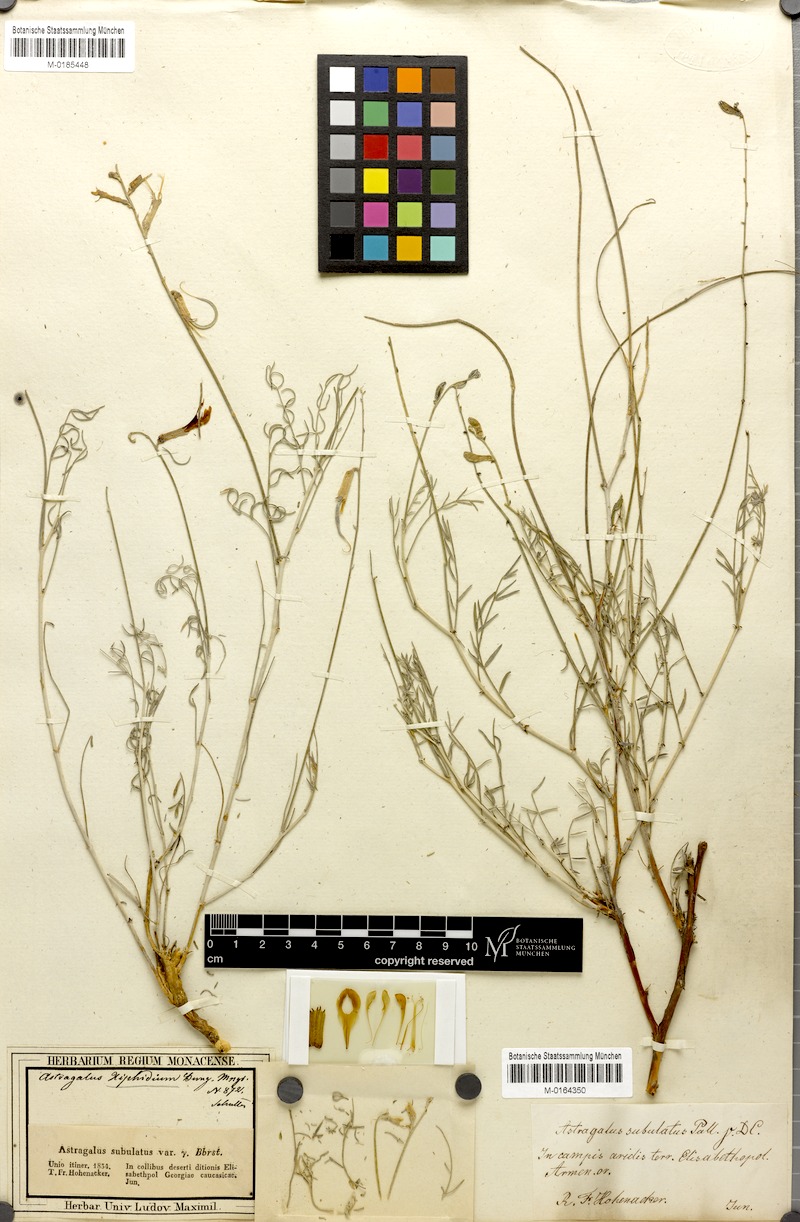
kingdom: Plantae
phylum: Tracheophyta
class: Magnoliopsida
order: Fabales
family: Fabaceae
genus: Astragalus
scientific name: Astragalus xiphidium
